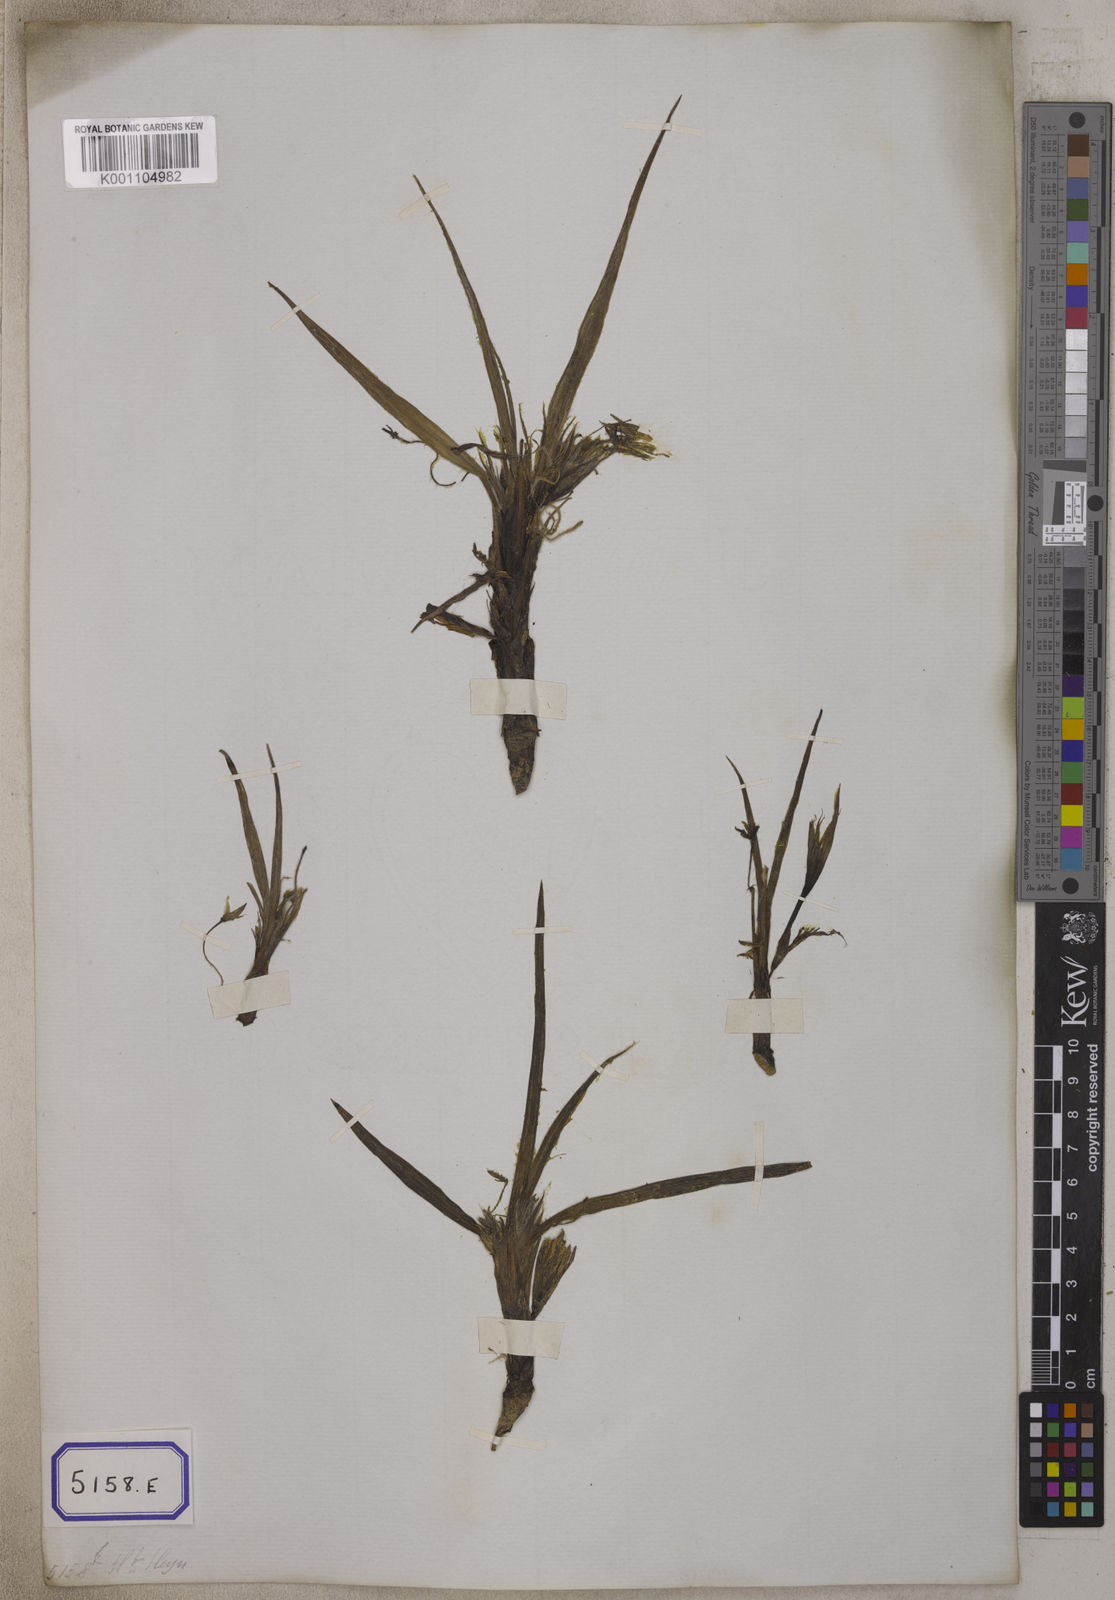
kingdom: Plantae
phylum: Tracheophyta
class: Liliopsida
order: Asparagales
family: Hypoxidaceae
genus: Curculigo
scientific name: Curculigo orchioides
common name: Golden eye-grass
